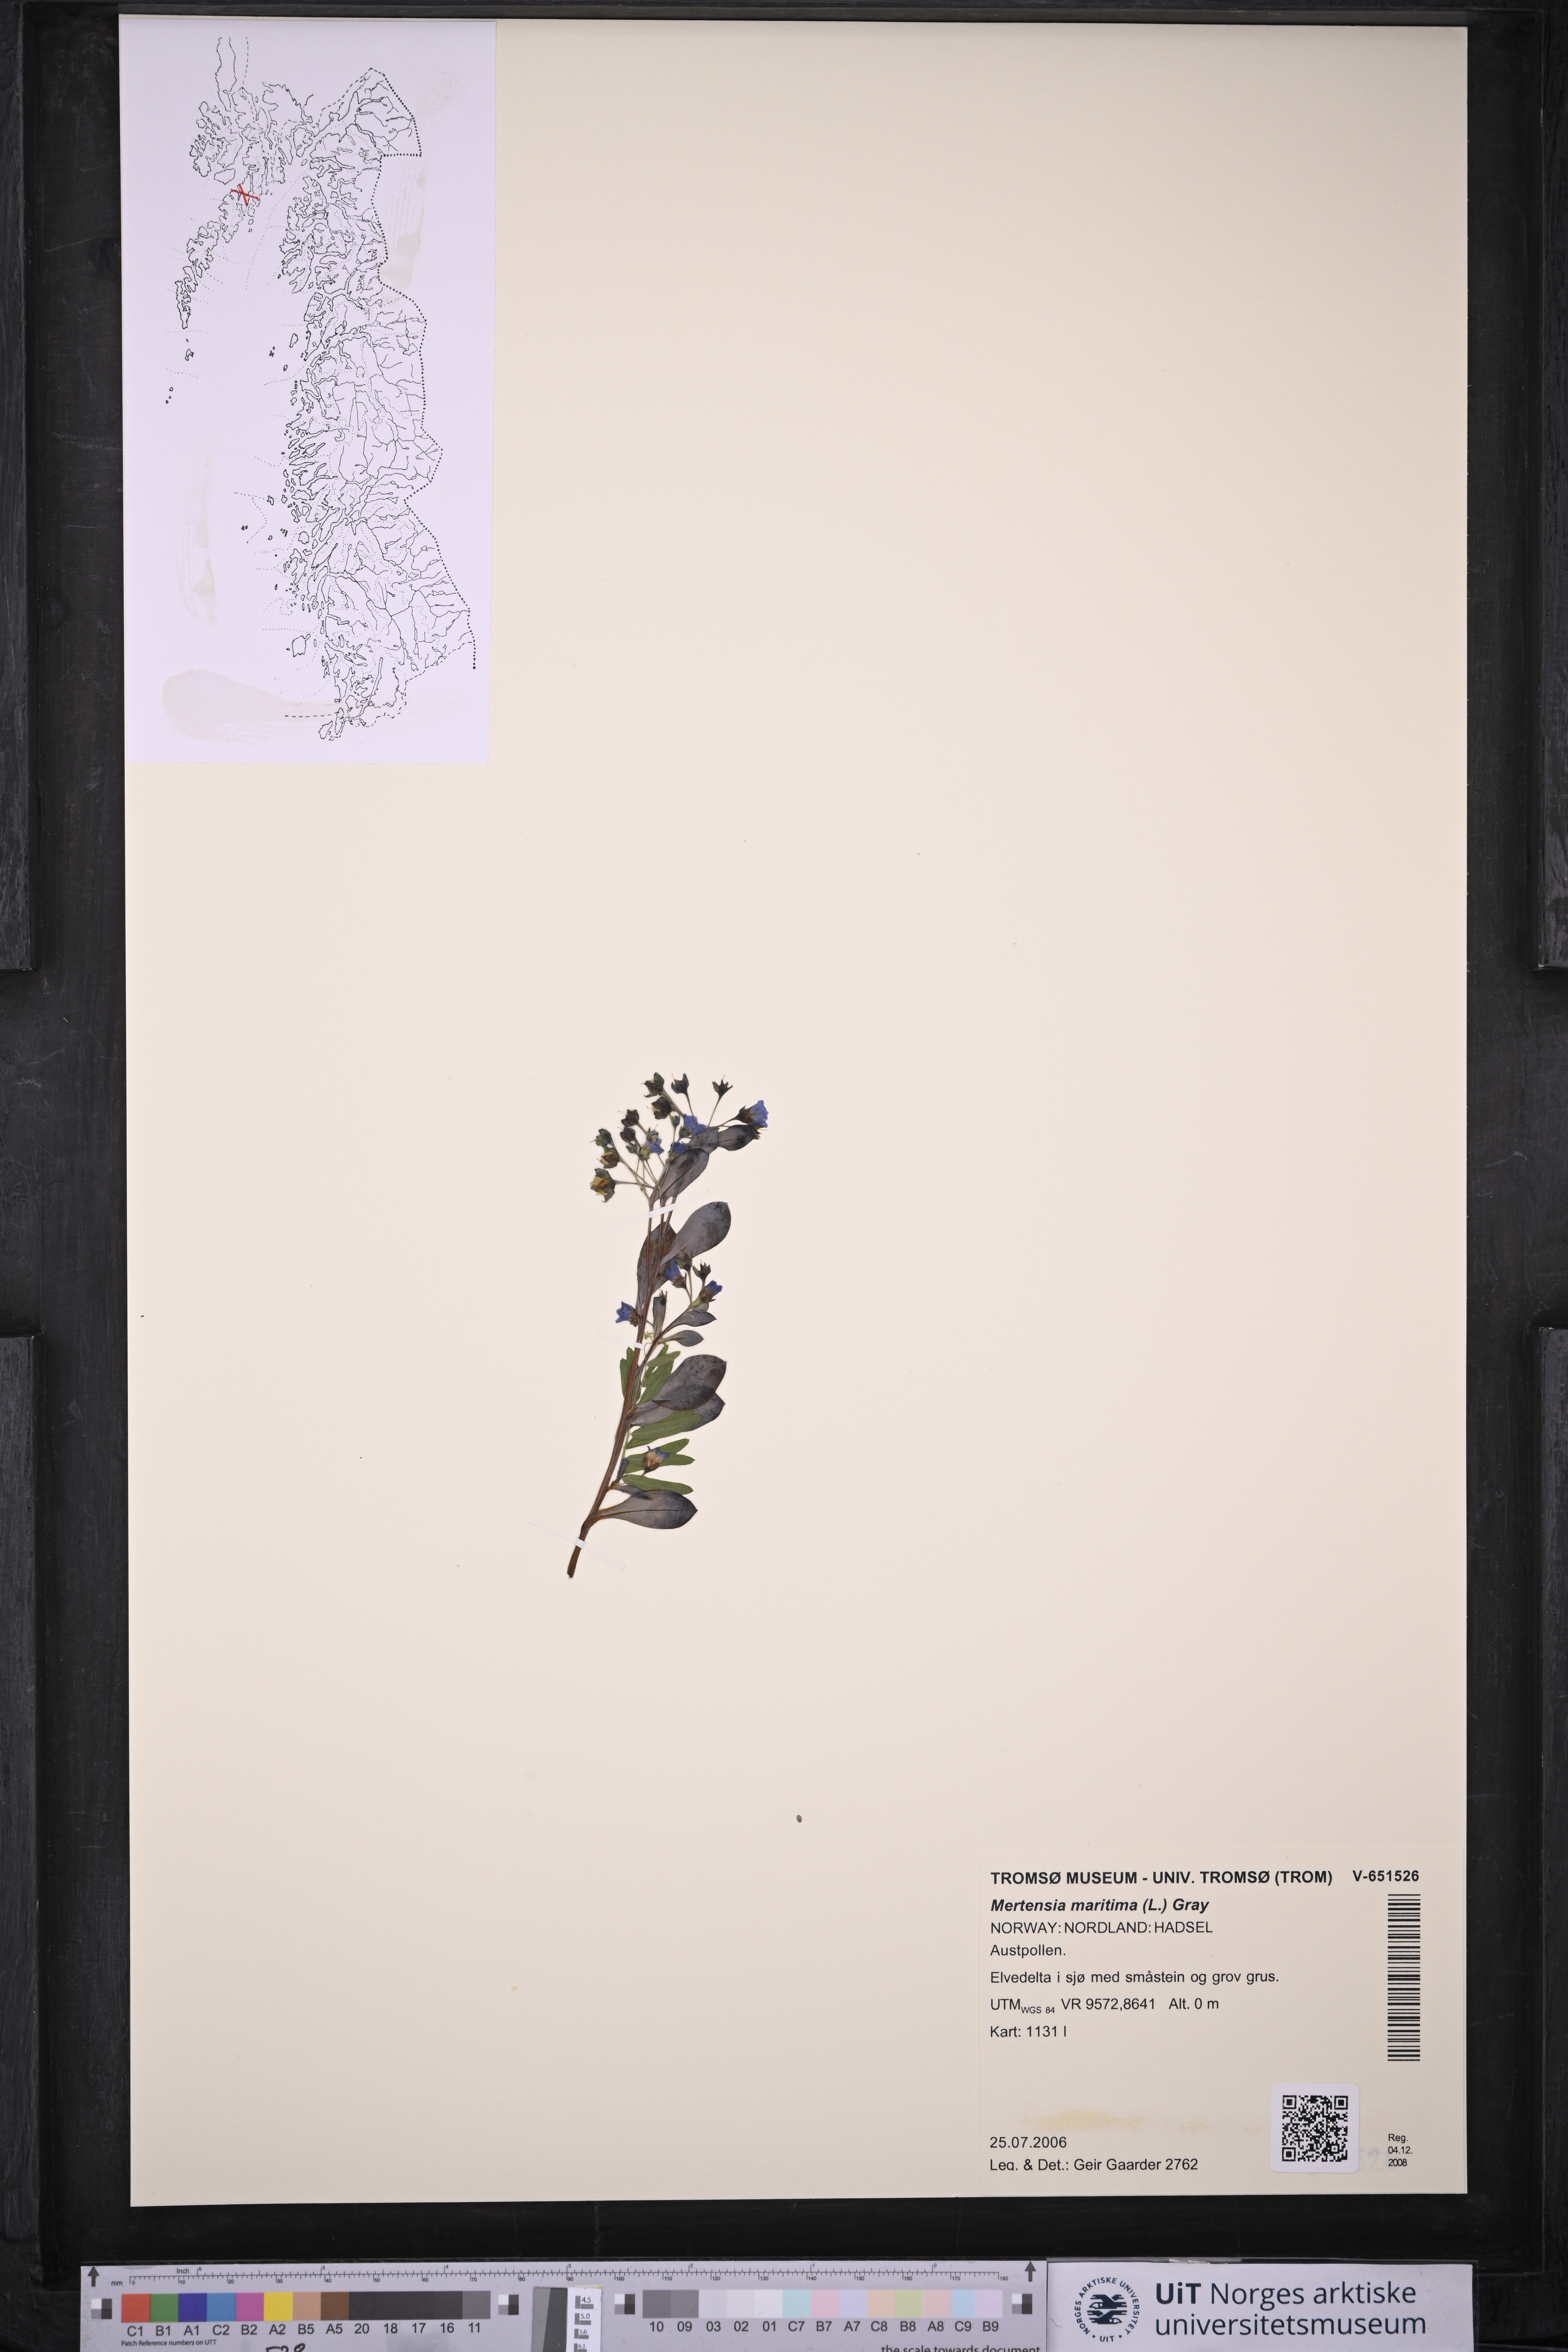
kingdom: Plantae
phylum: Tracheophyta
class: Magnoliopsida
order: Boraginales
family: Boraginaceae
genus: Mertensia
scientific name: Mertensia maritima
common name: Oysterplant
